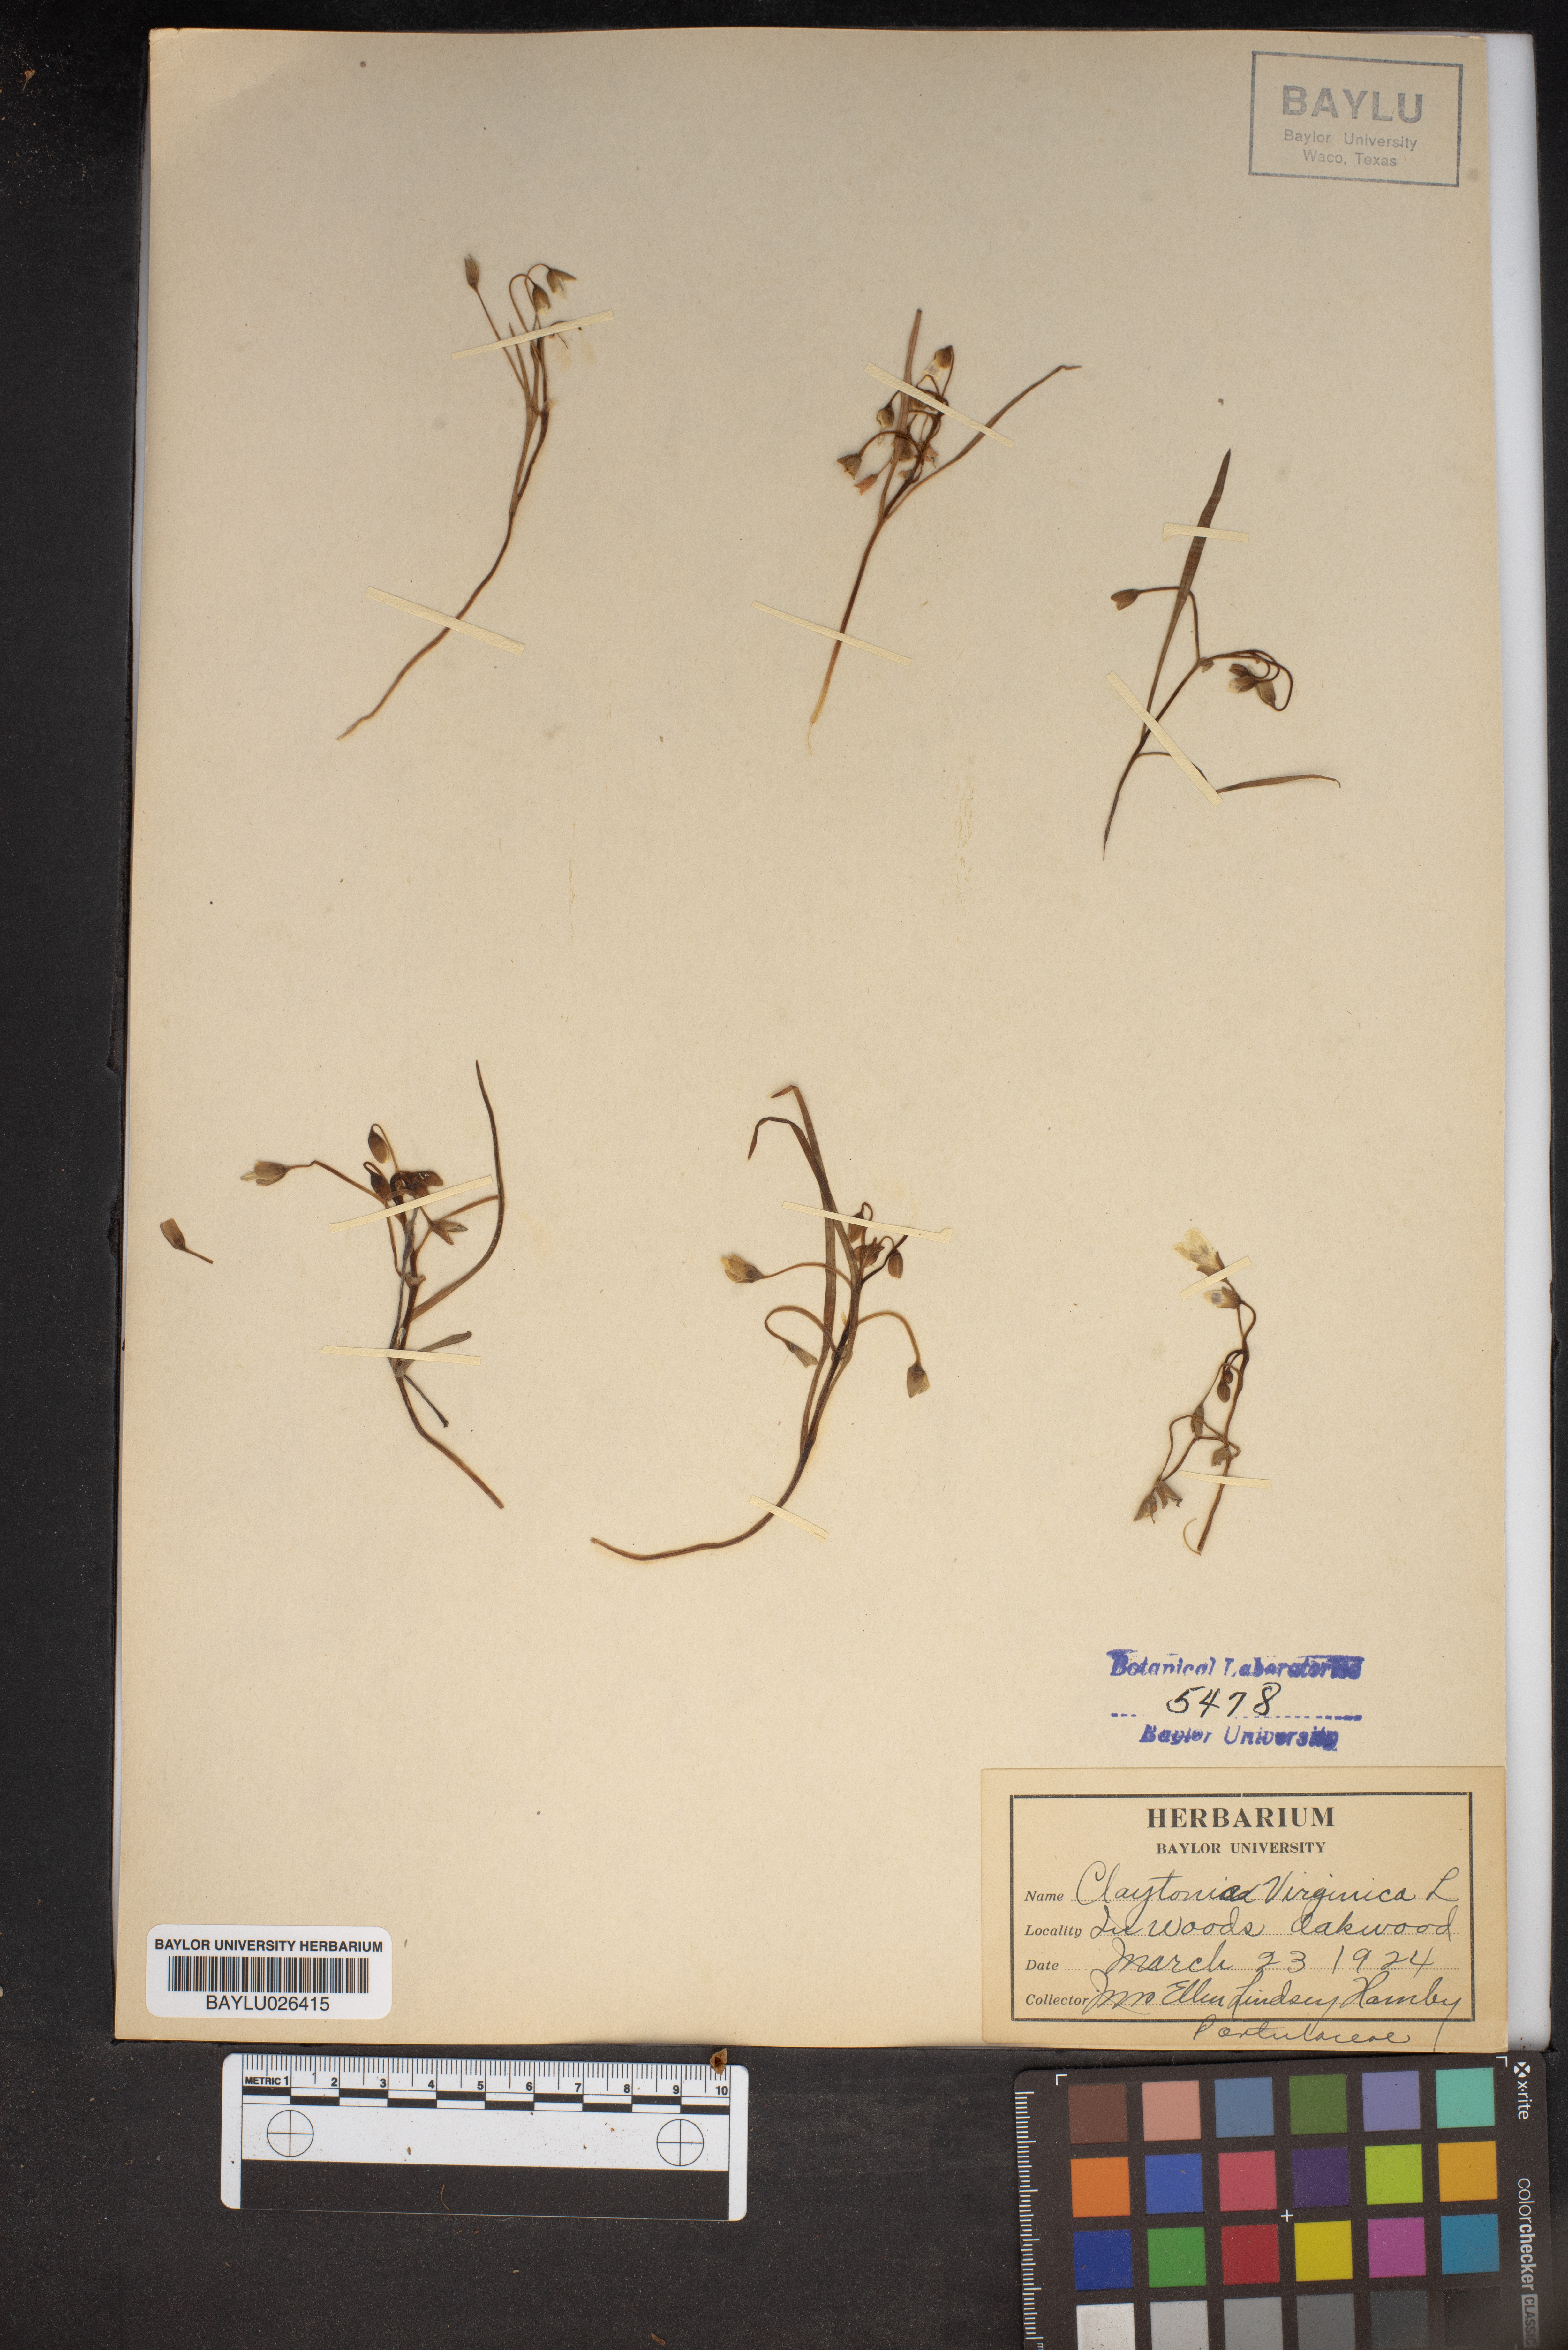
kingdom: Plantae
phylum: Tracheophyta
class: Magnoliopsida
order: Caryophyllales
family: Montiaceae
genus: Claytonia
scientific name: Claytonia virginica
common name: Virginia springbeauty
